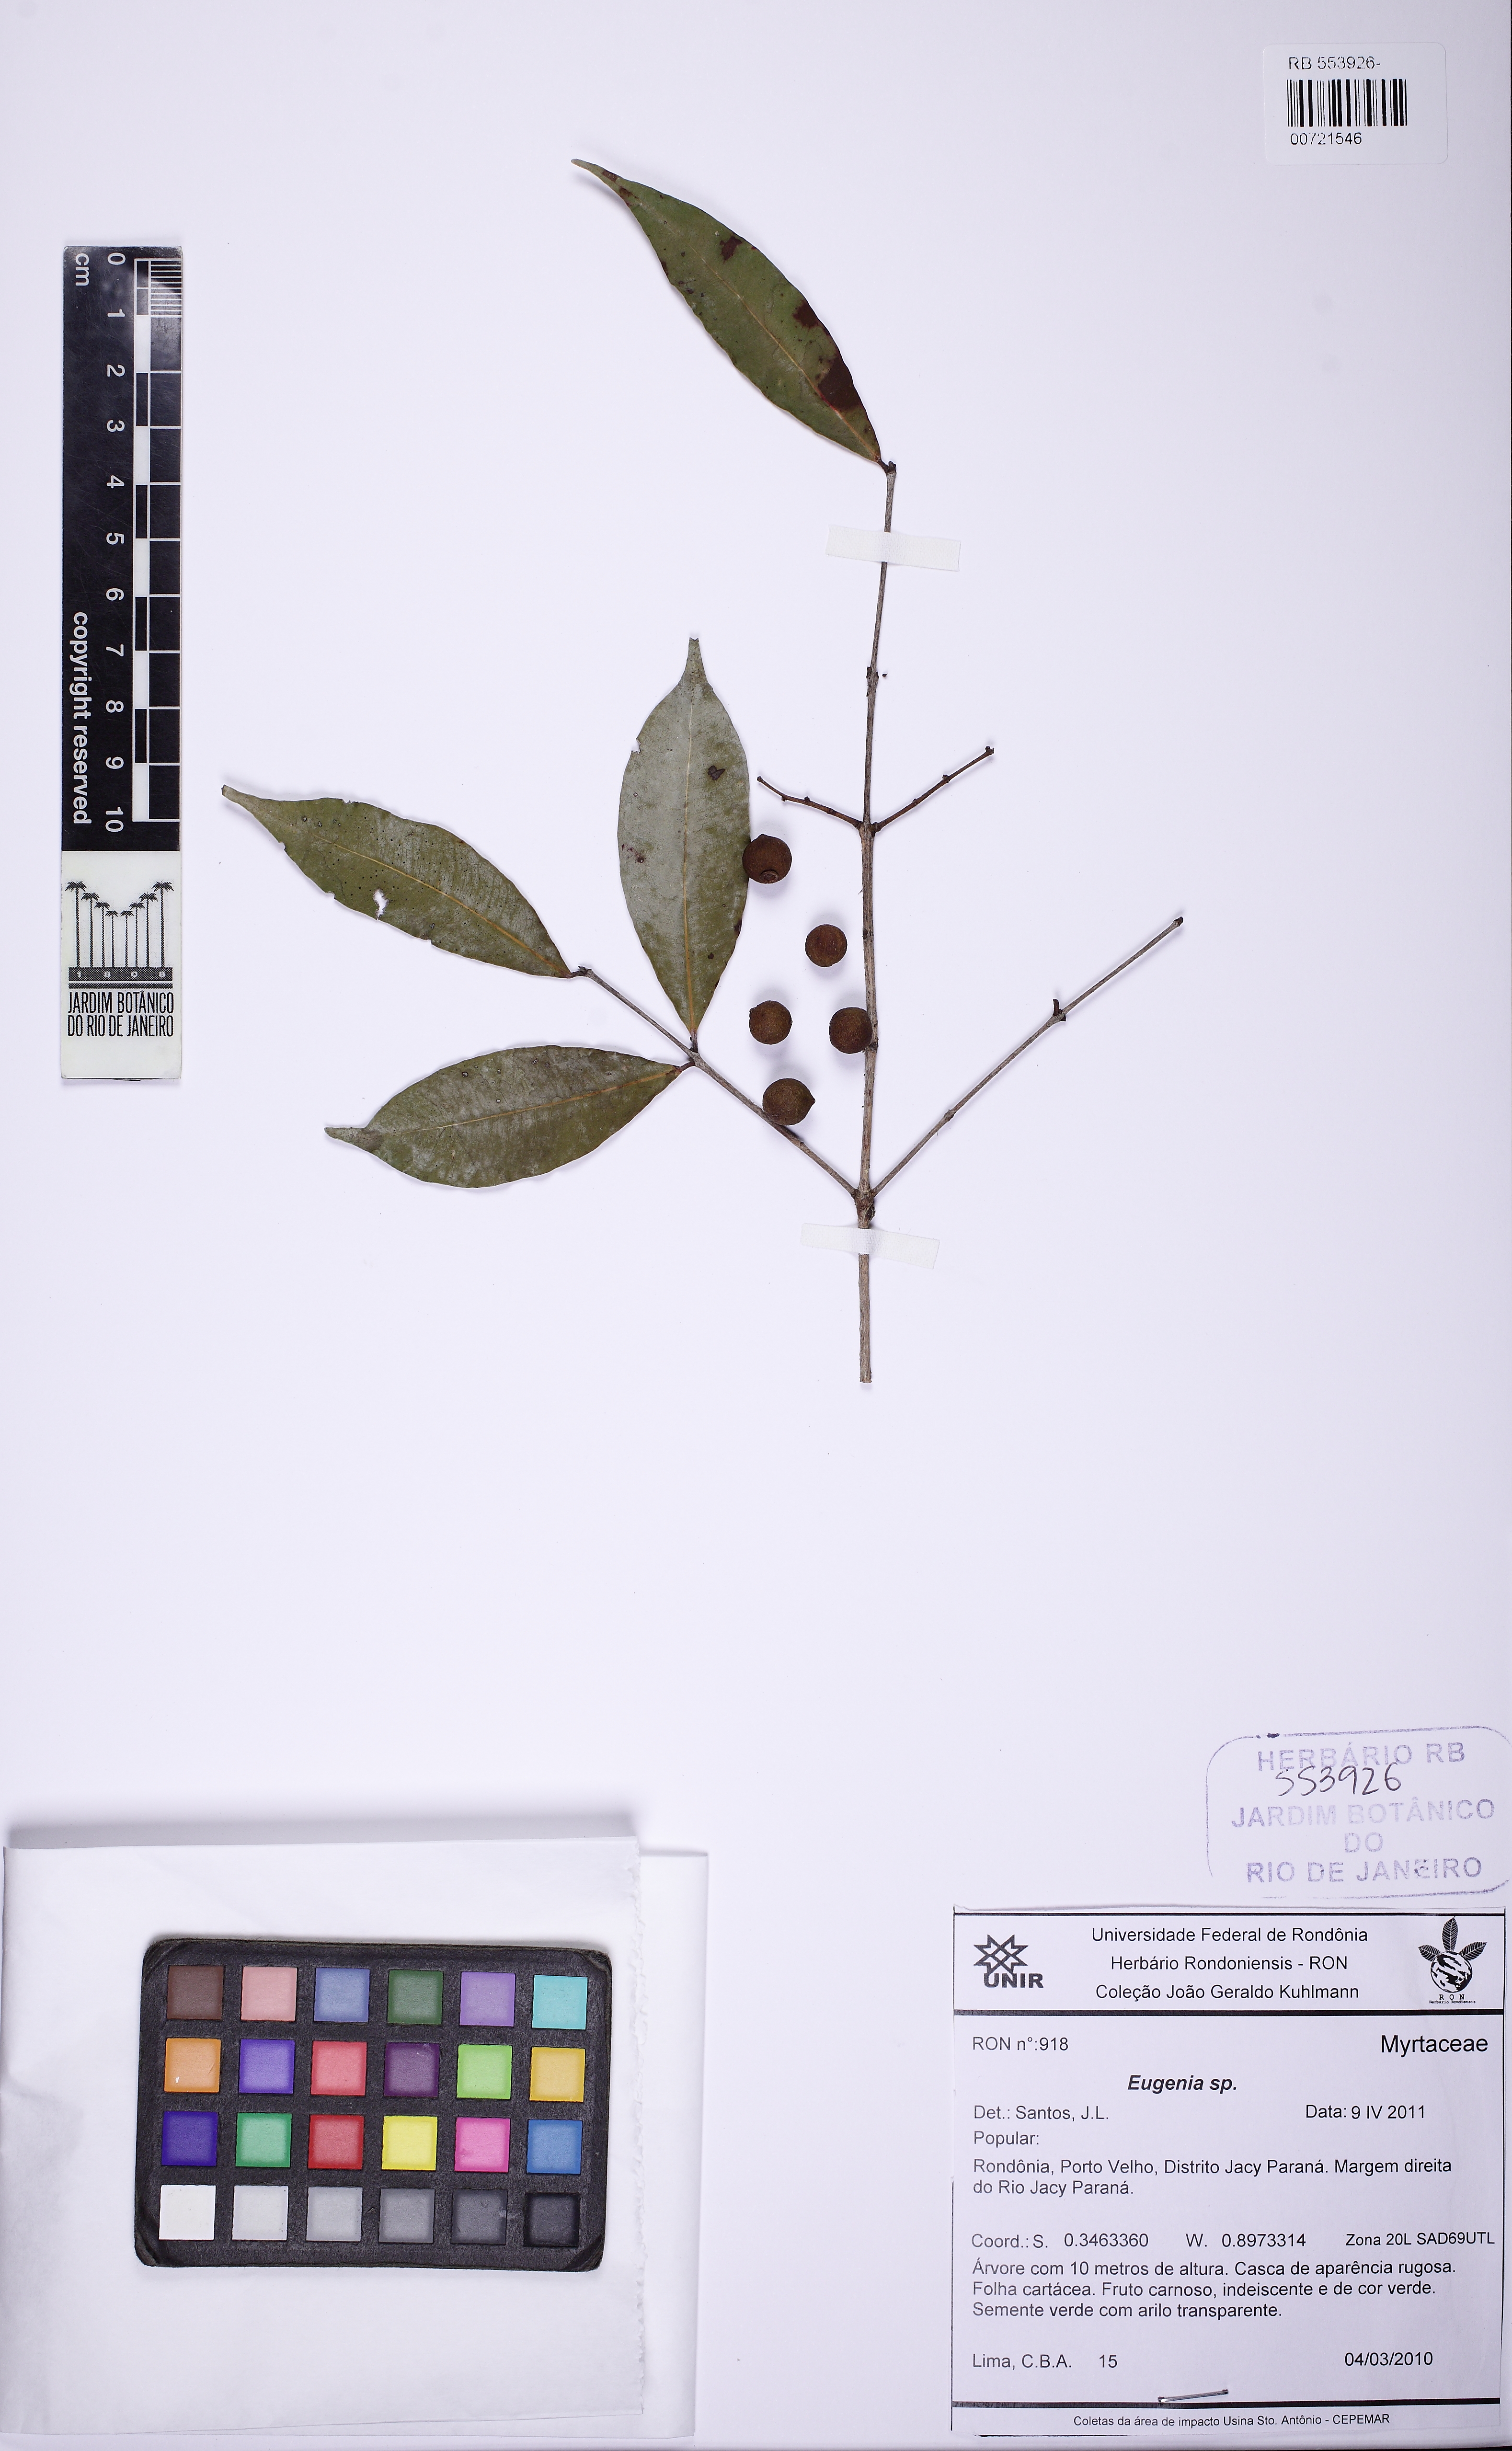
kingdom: Plantae
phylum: Tracheophyta
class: Magnoliopsida
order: Myrtales
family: Myrtaceae
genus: Eugenia
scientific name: Eugenia
